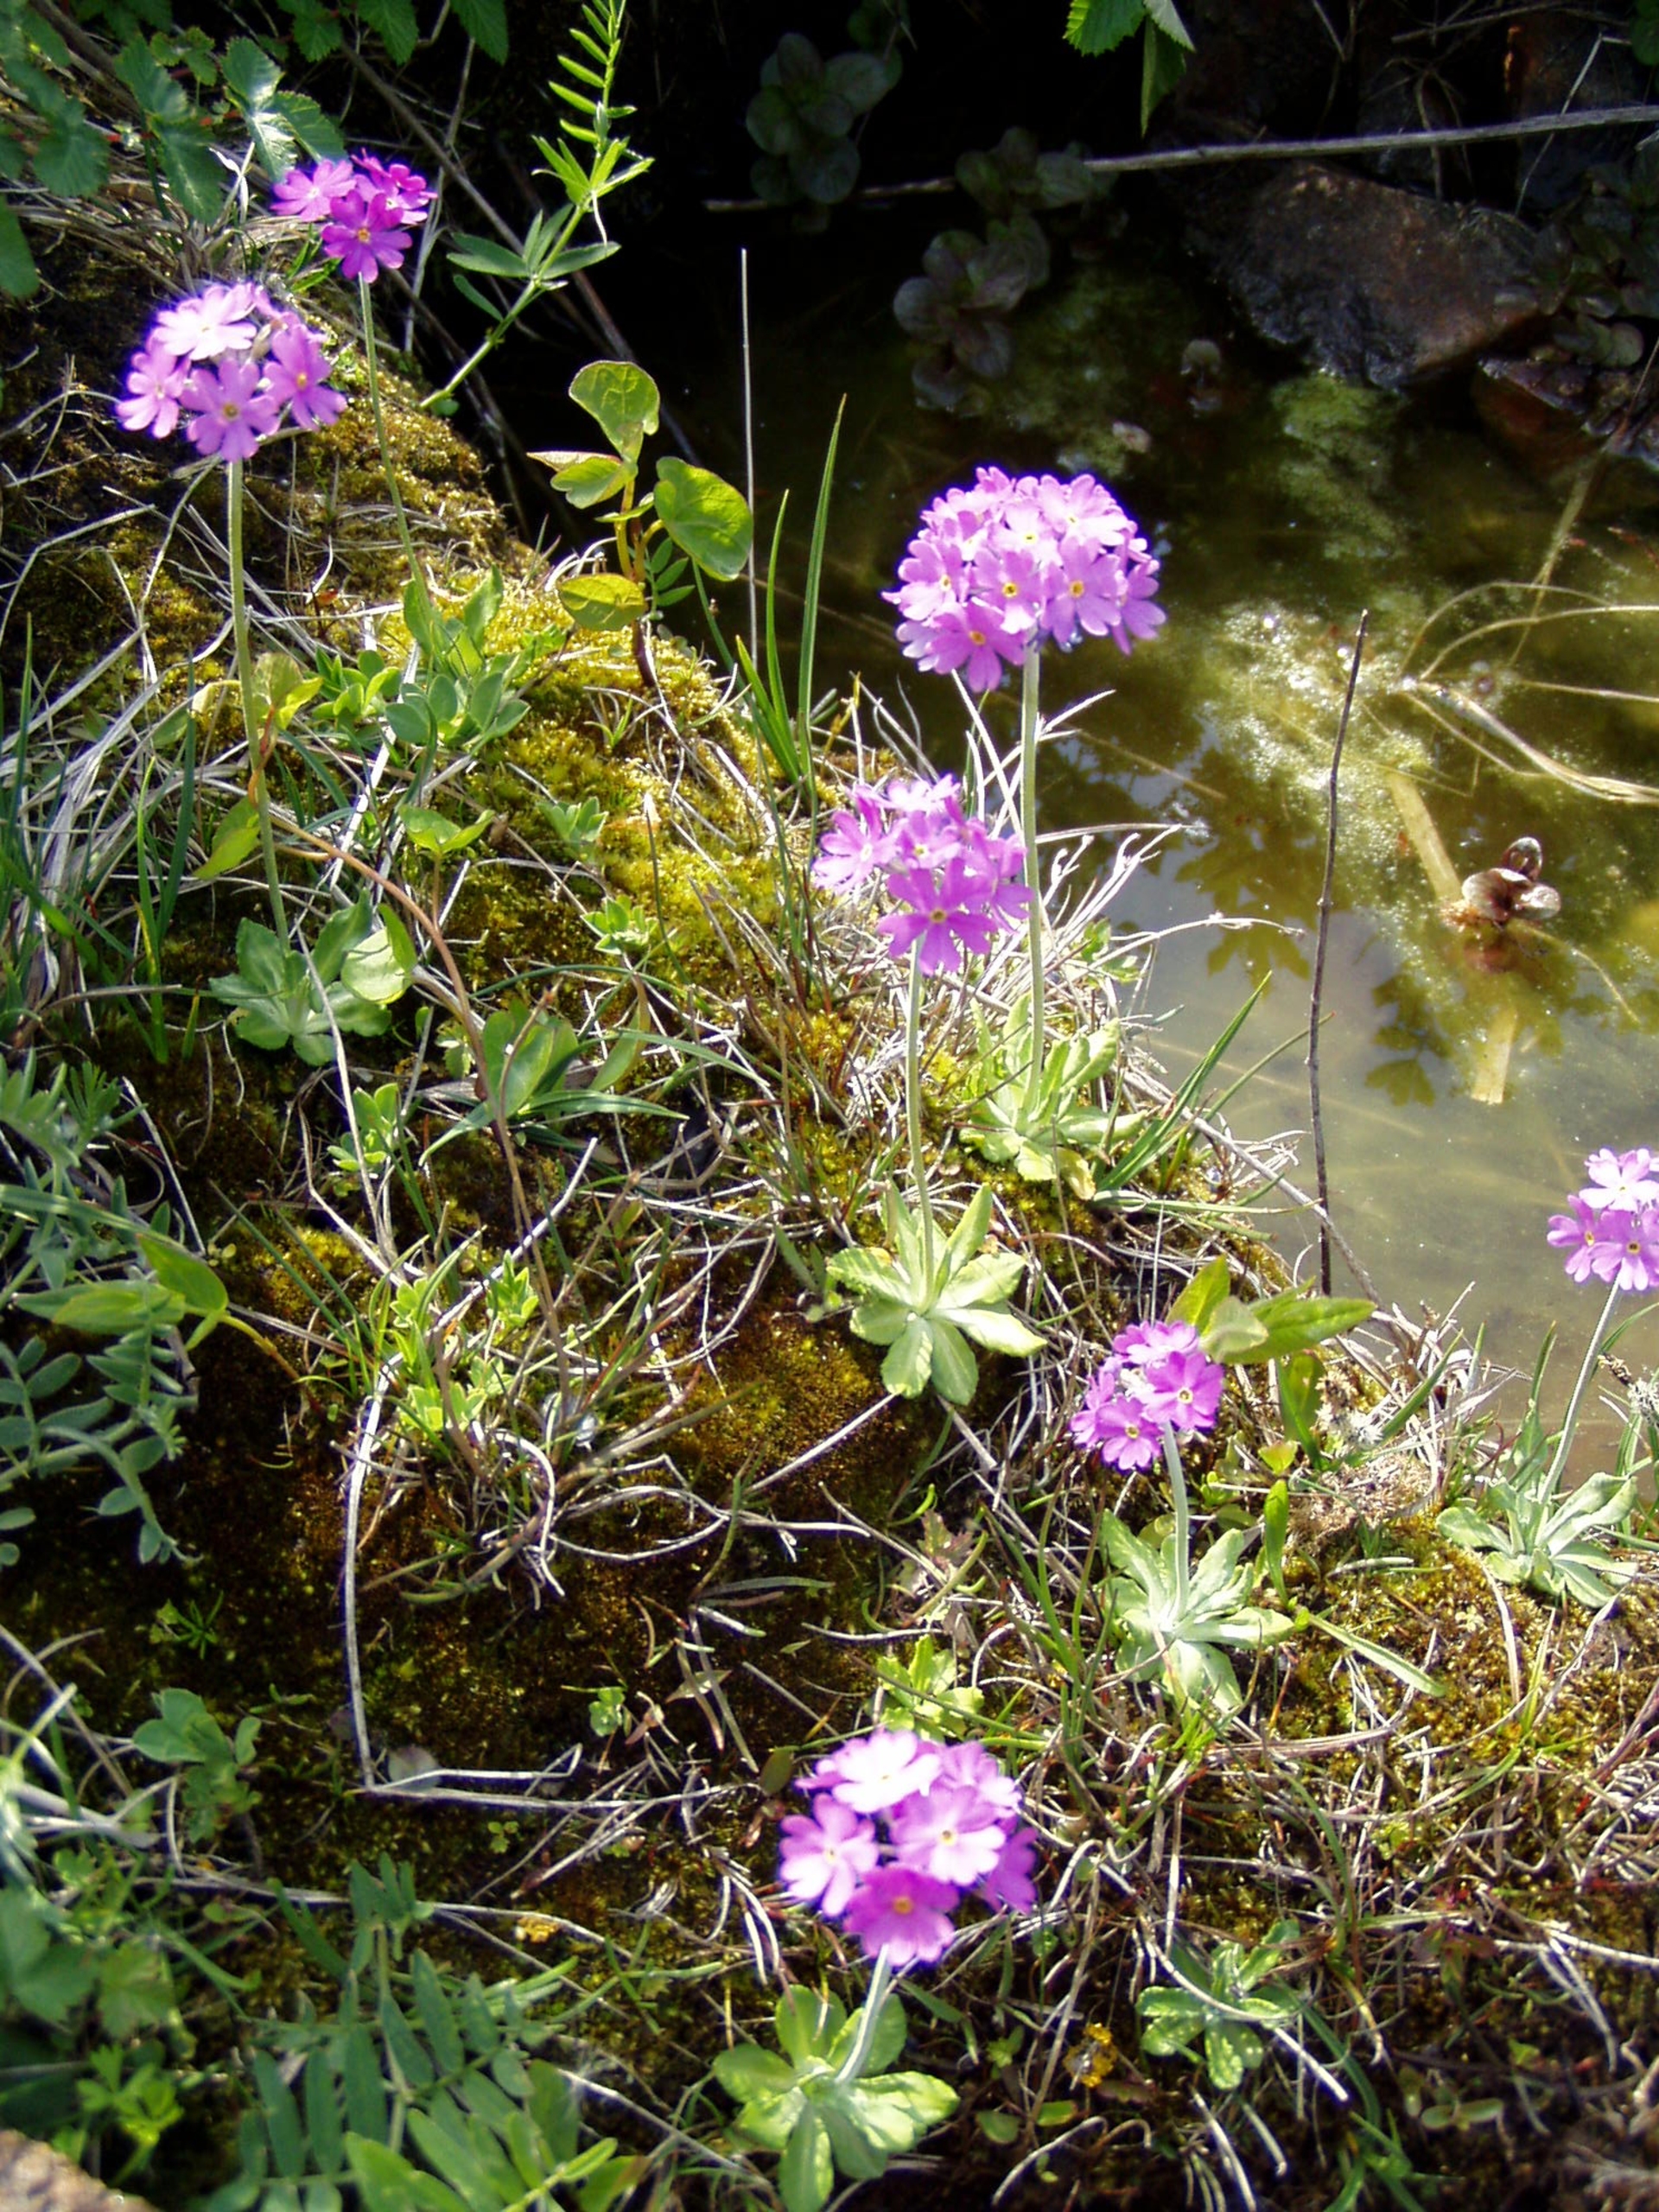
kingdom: Plantae
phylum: Tracheophyta
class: Magnoliopsida
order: Ericales
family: Primulaceae
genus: Primula
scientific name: Primula farinosa
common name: Melet kodriver
